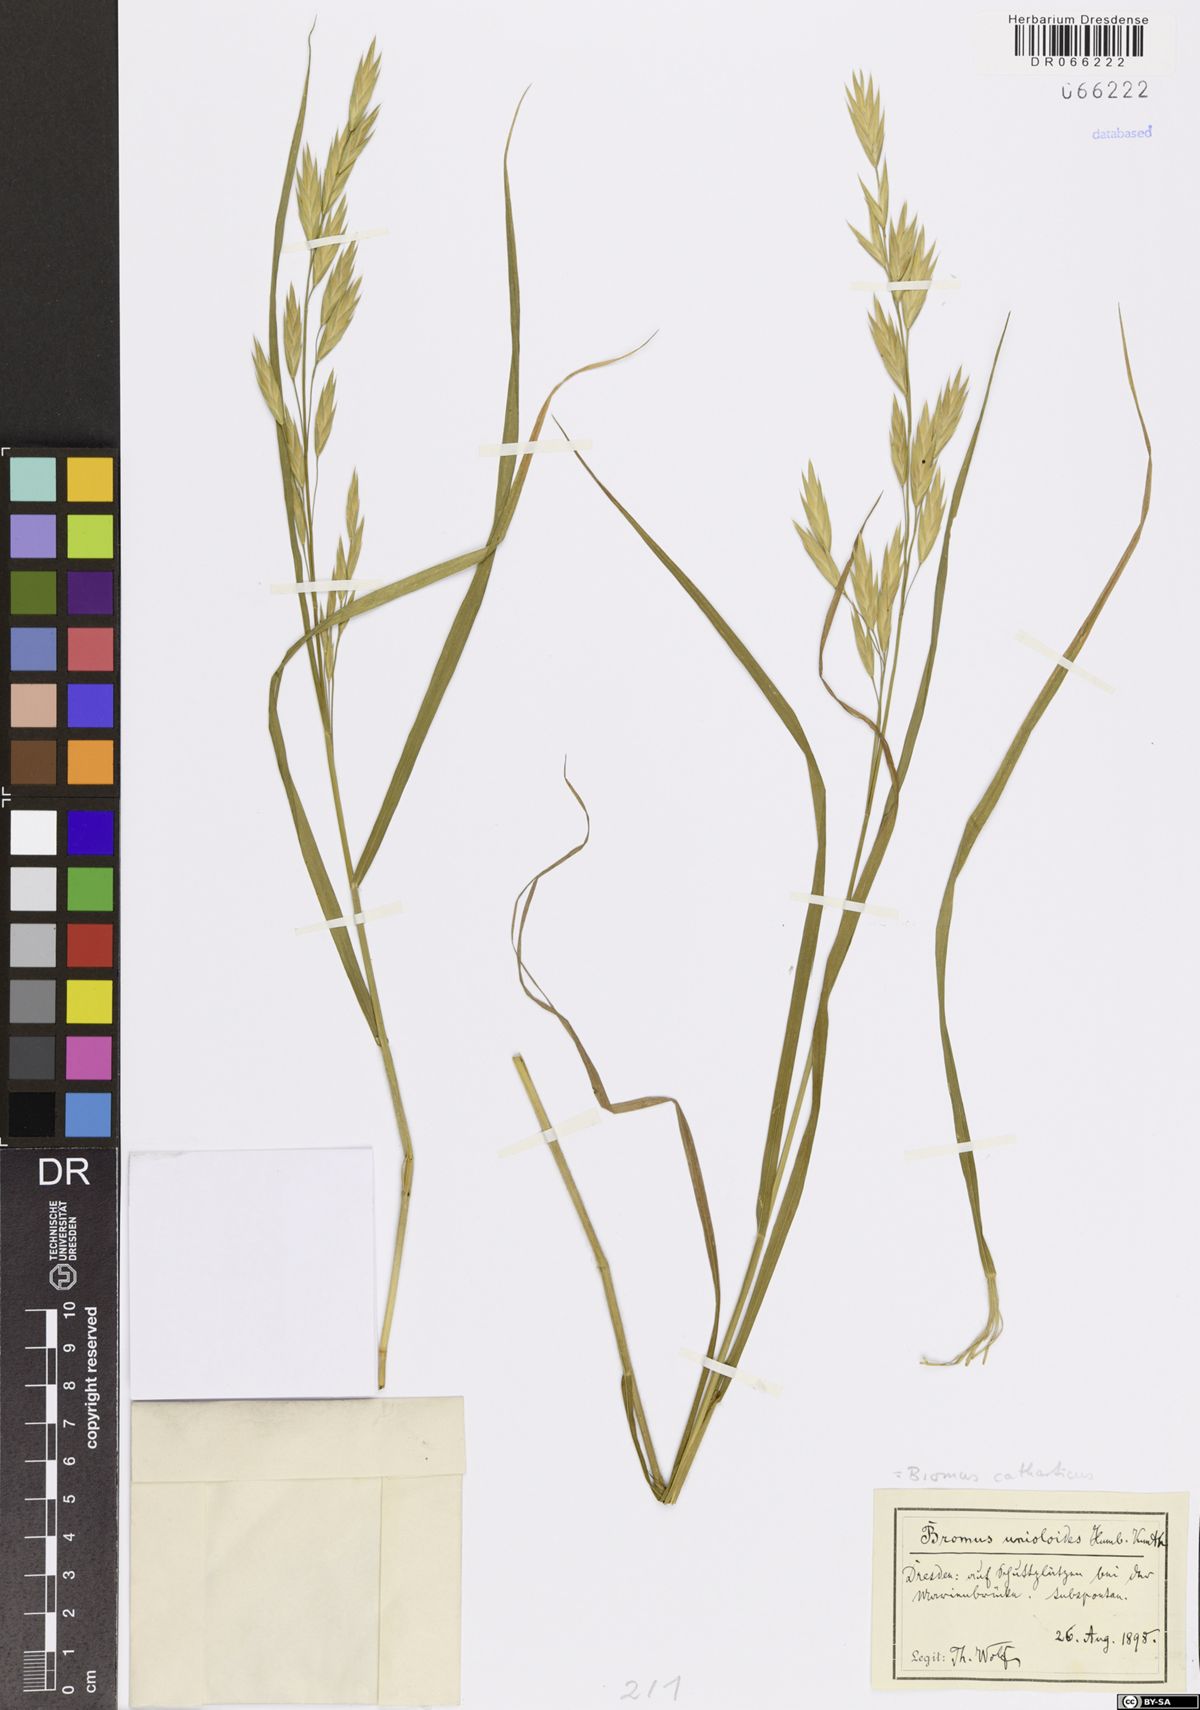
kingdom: Plantae
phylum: Tracheophyta
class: Liliopsida
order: Poales
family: Poaceae
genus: Bromus
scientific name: Bromus catharticus
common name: Rescuegrass
